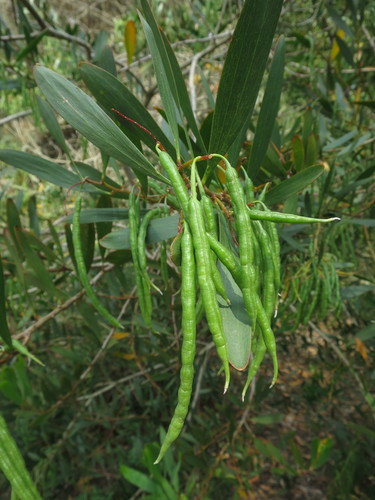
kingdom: Plantae
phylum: Tracheophyta
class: Magnoliopsida
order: Fabales
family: Fabaceae
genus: Acacia
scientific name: Acacia longifolia
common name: Sydney golden wattle
